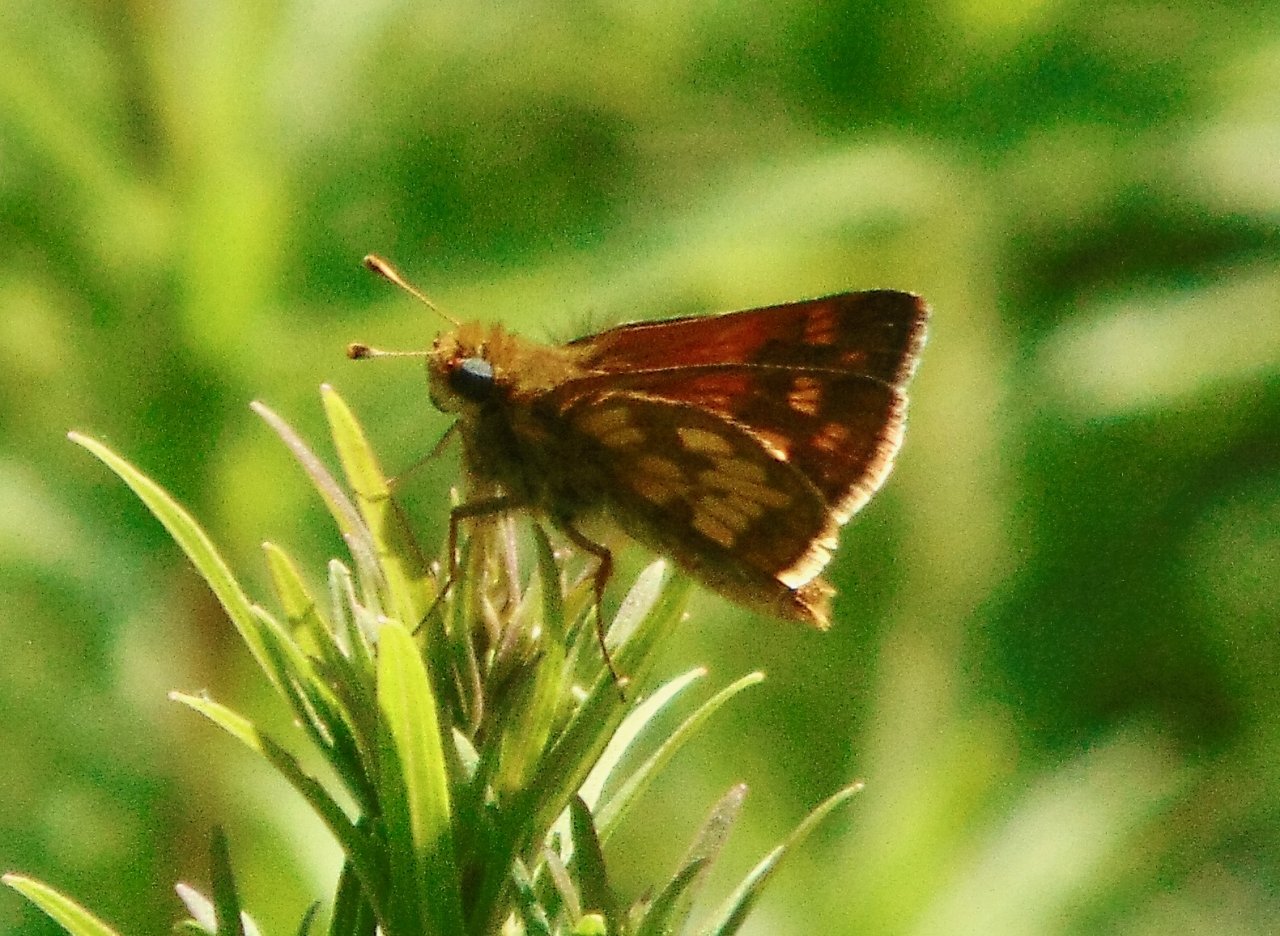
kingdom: Animalia
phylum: Arthropoda
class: Insecta
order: Lepidoptera
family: Hesperiidae
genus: Polites
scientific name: Polites coras
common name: Peck's Skipper
